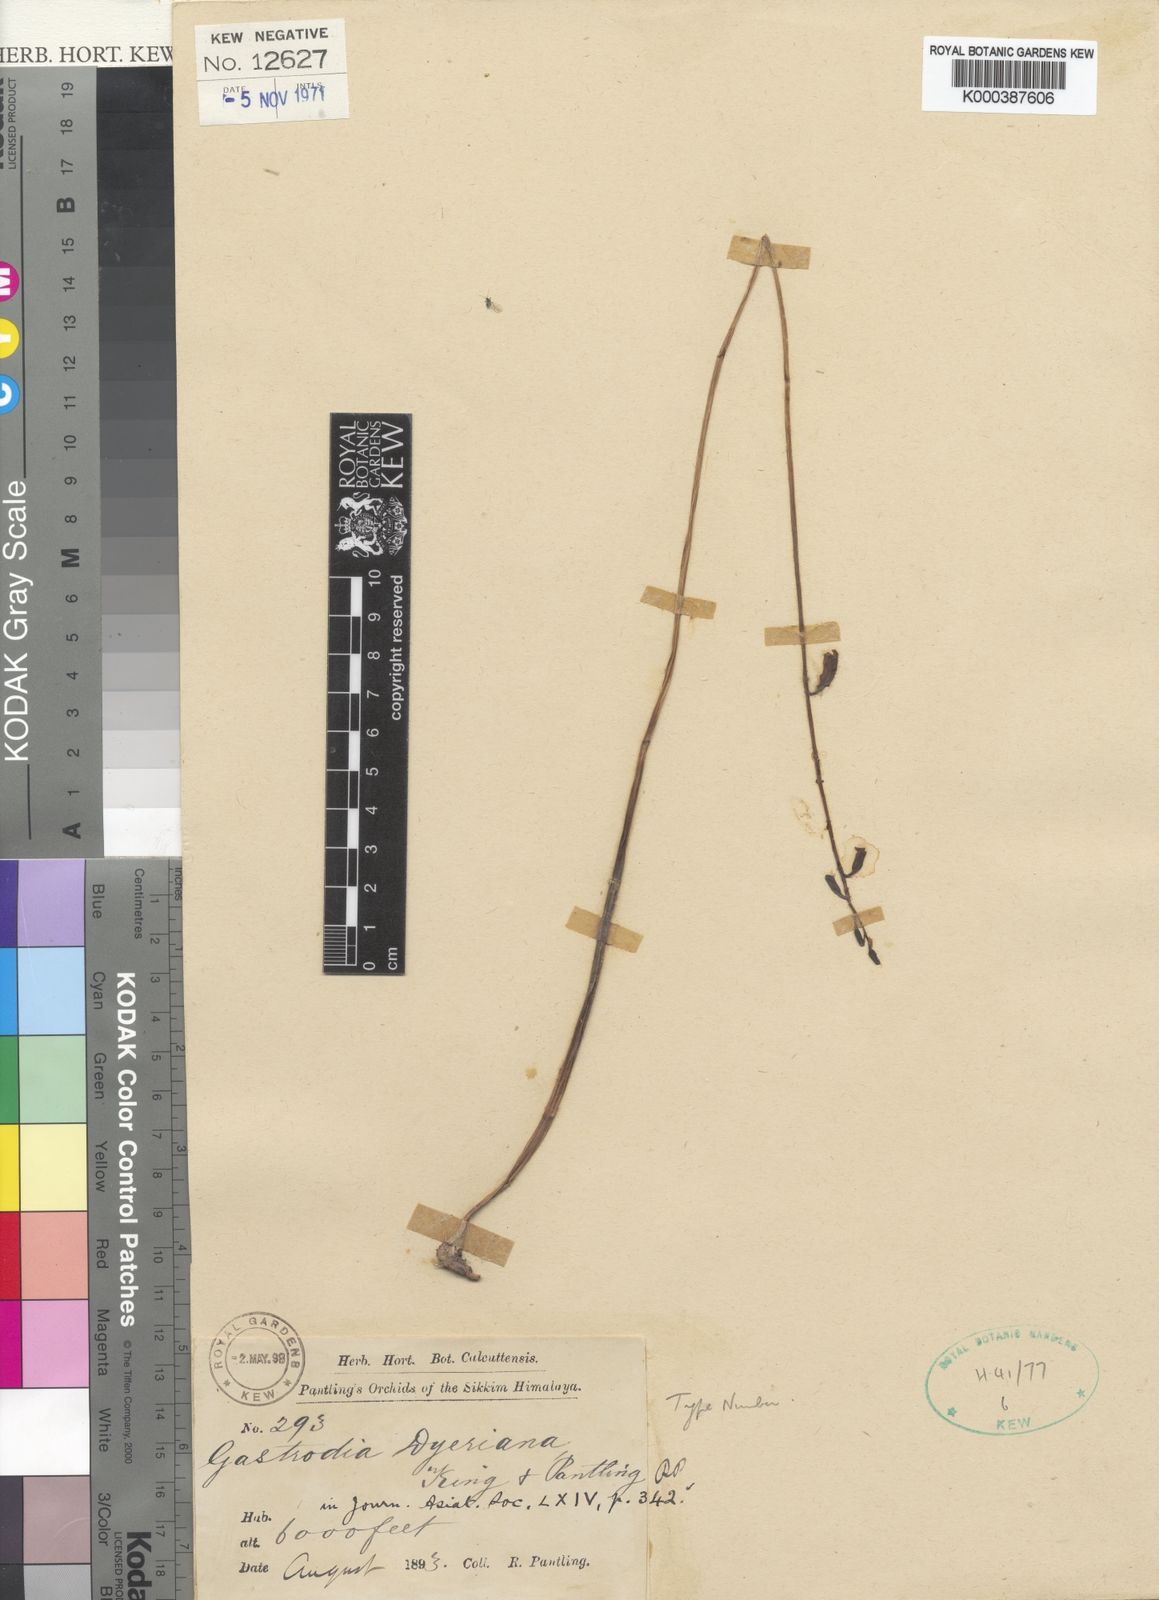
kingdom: Plantae
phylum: Tracheophyta
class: Liliopsida
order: Asparagales
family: Orchidaceae
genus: Gastrodia
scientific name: Gastrodia dyeriana
